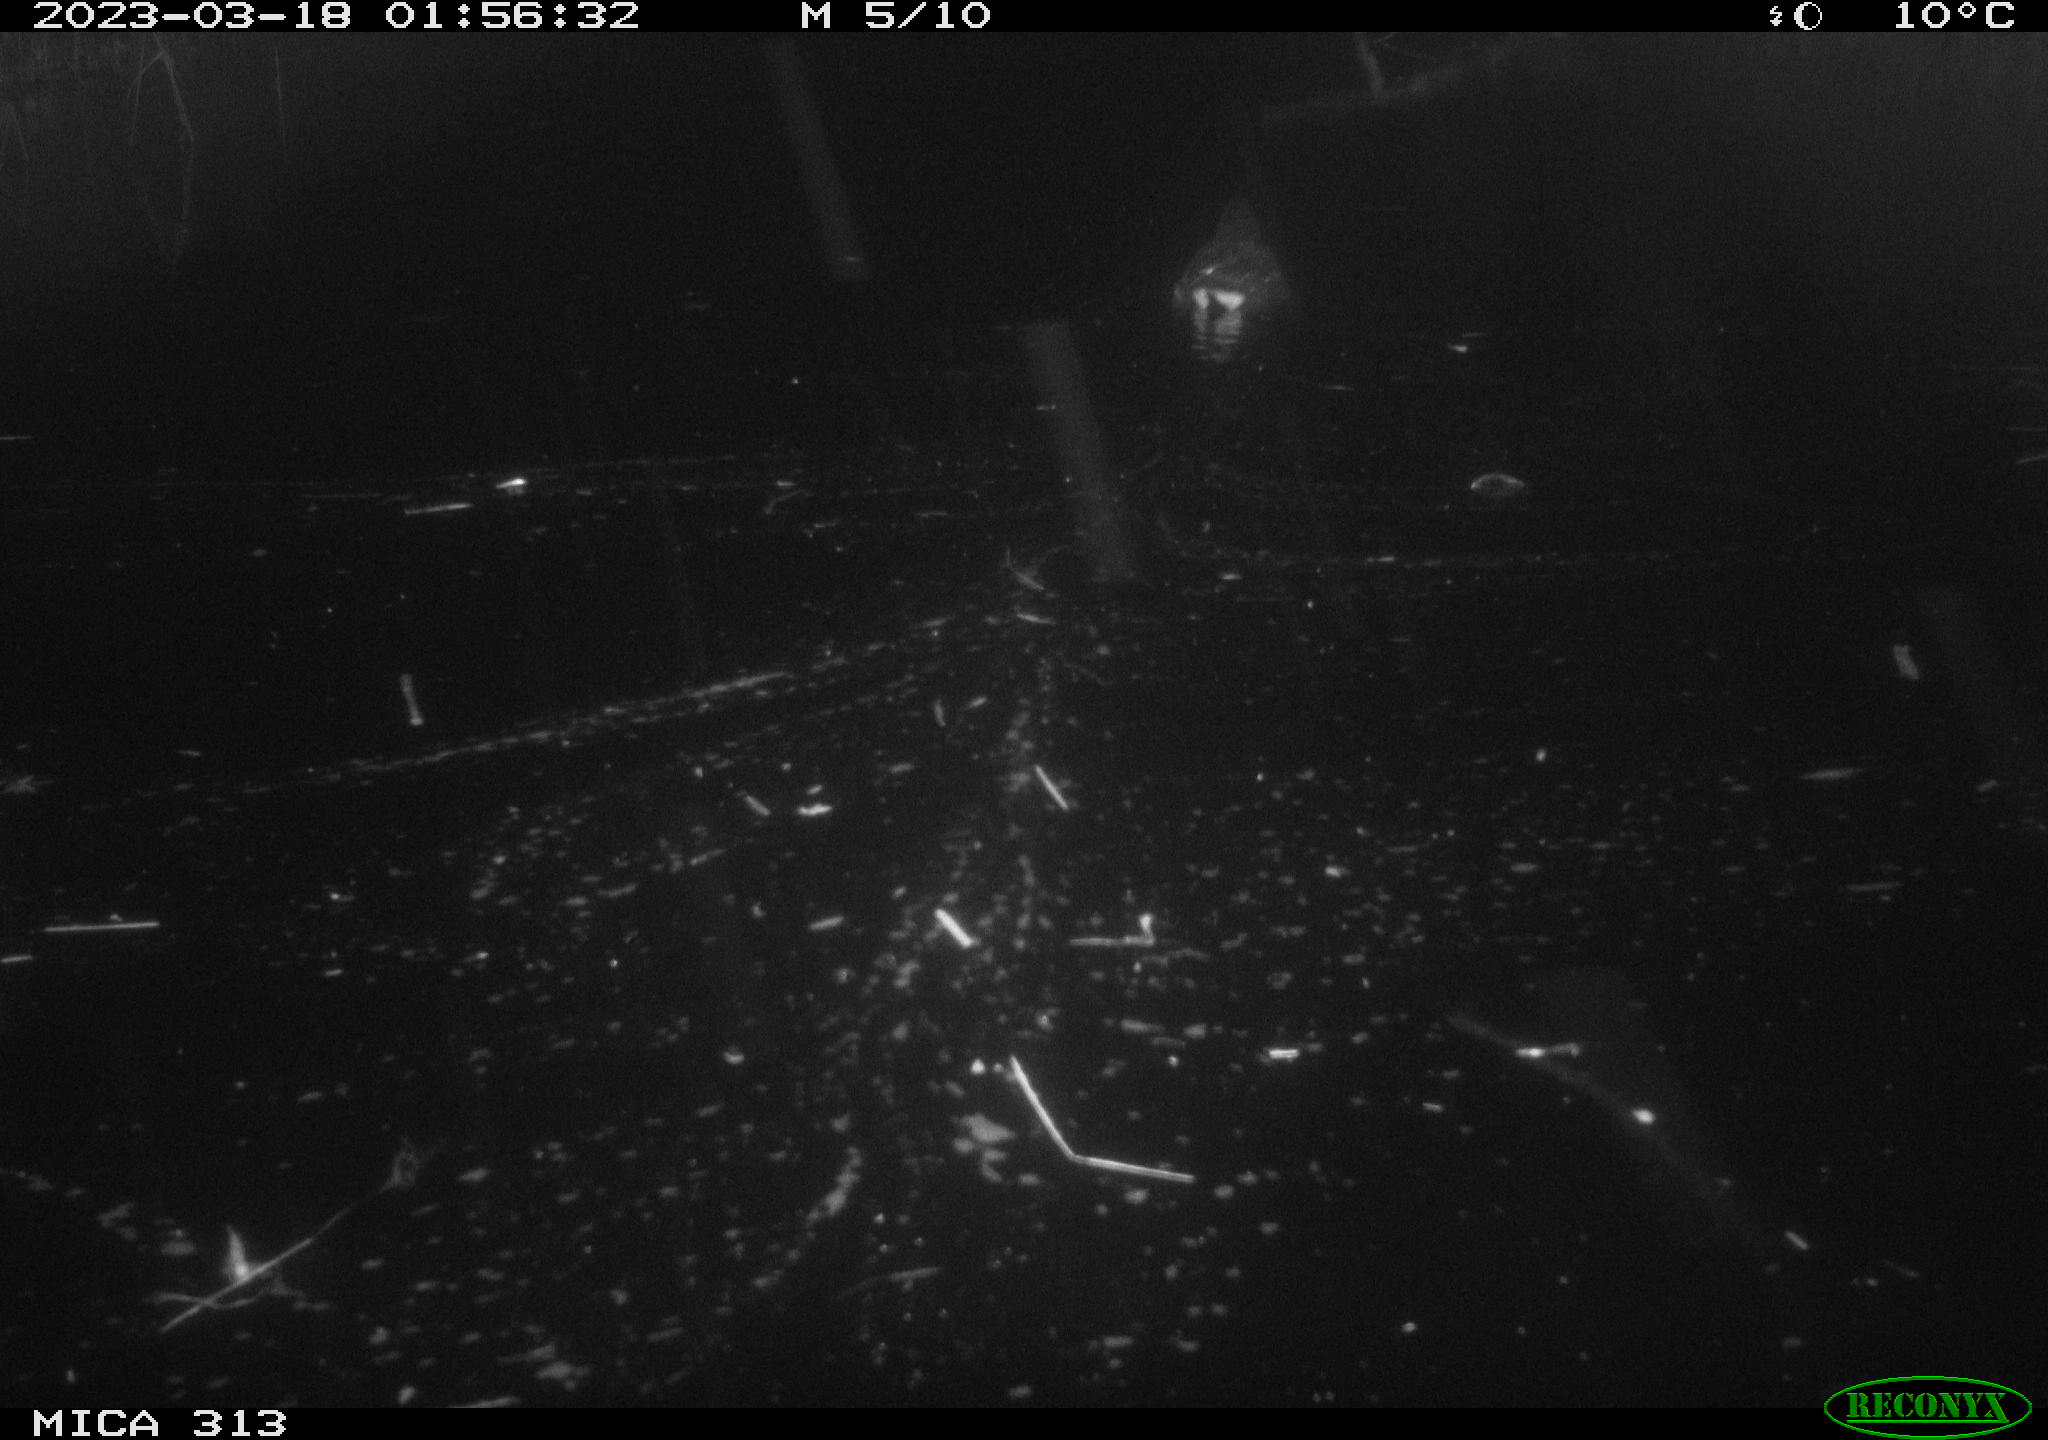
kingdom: Animalia
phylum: Chordata
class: Aves
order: Gruiformes
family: Rallidae
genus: Gallinula
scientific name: Gallinula chloropus
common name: Common moorhen
